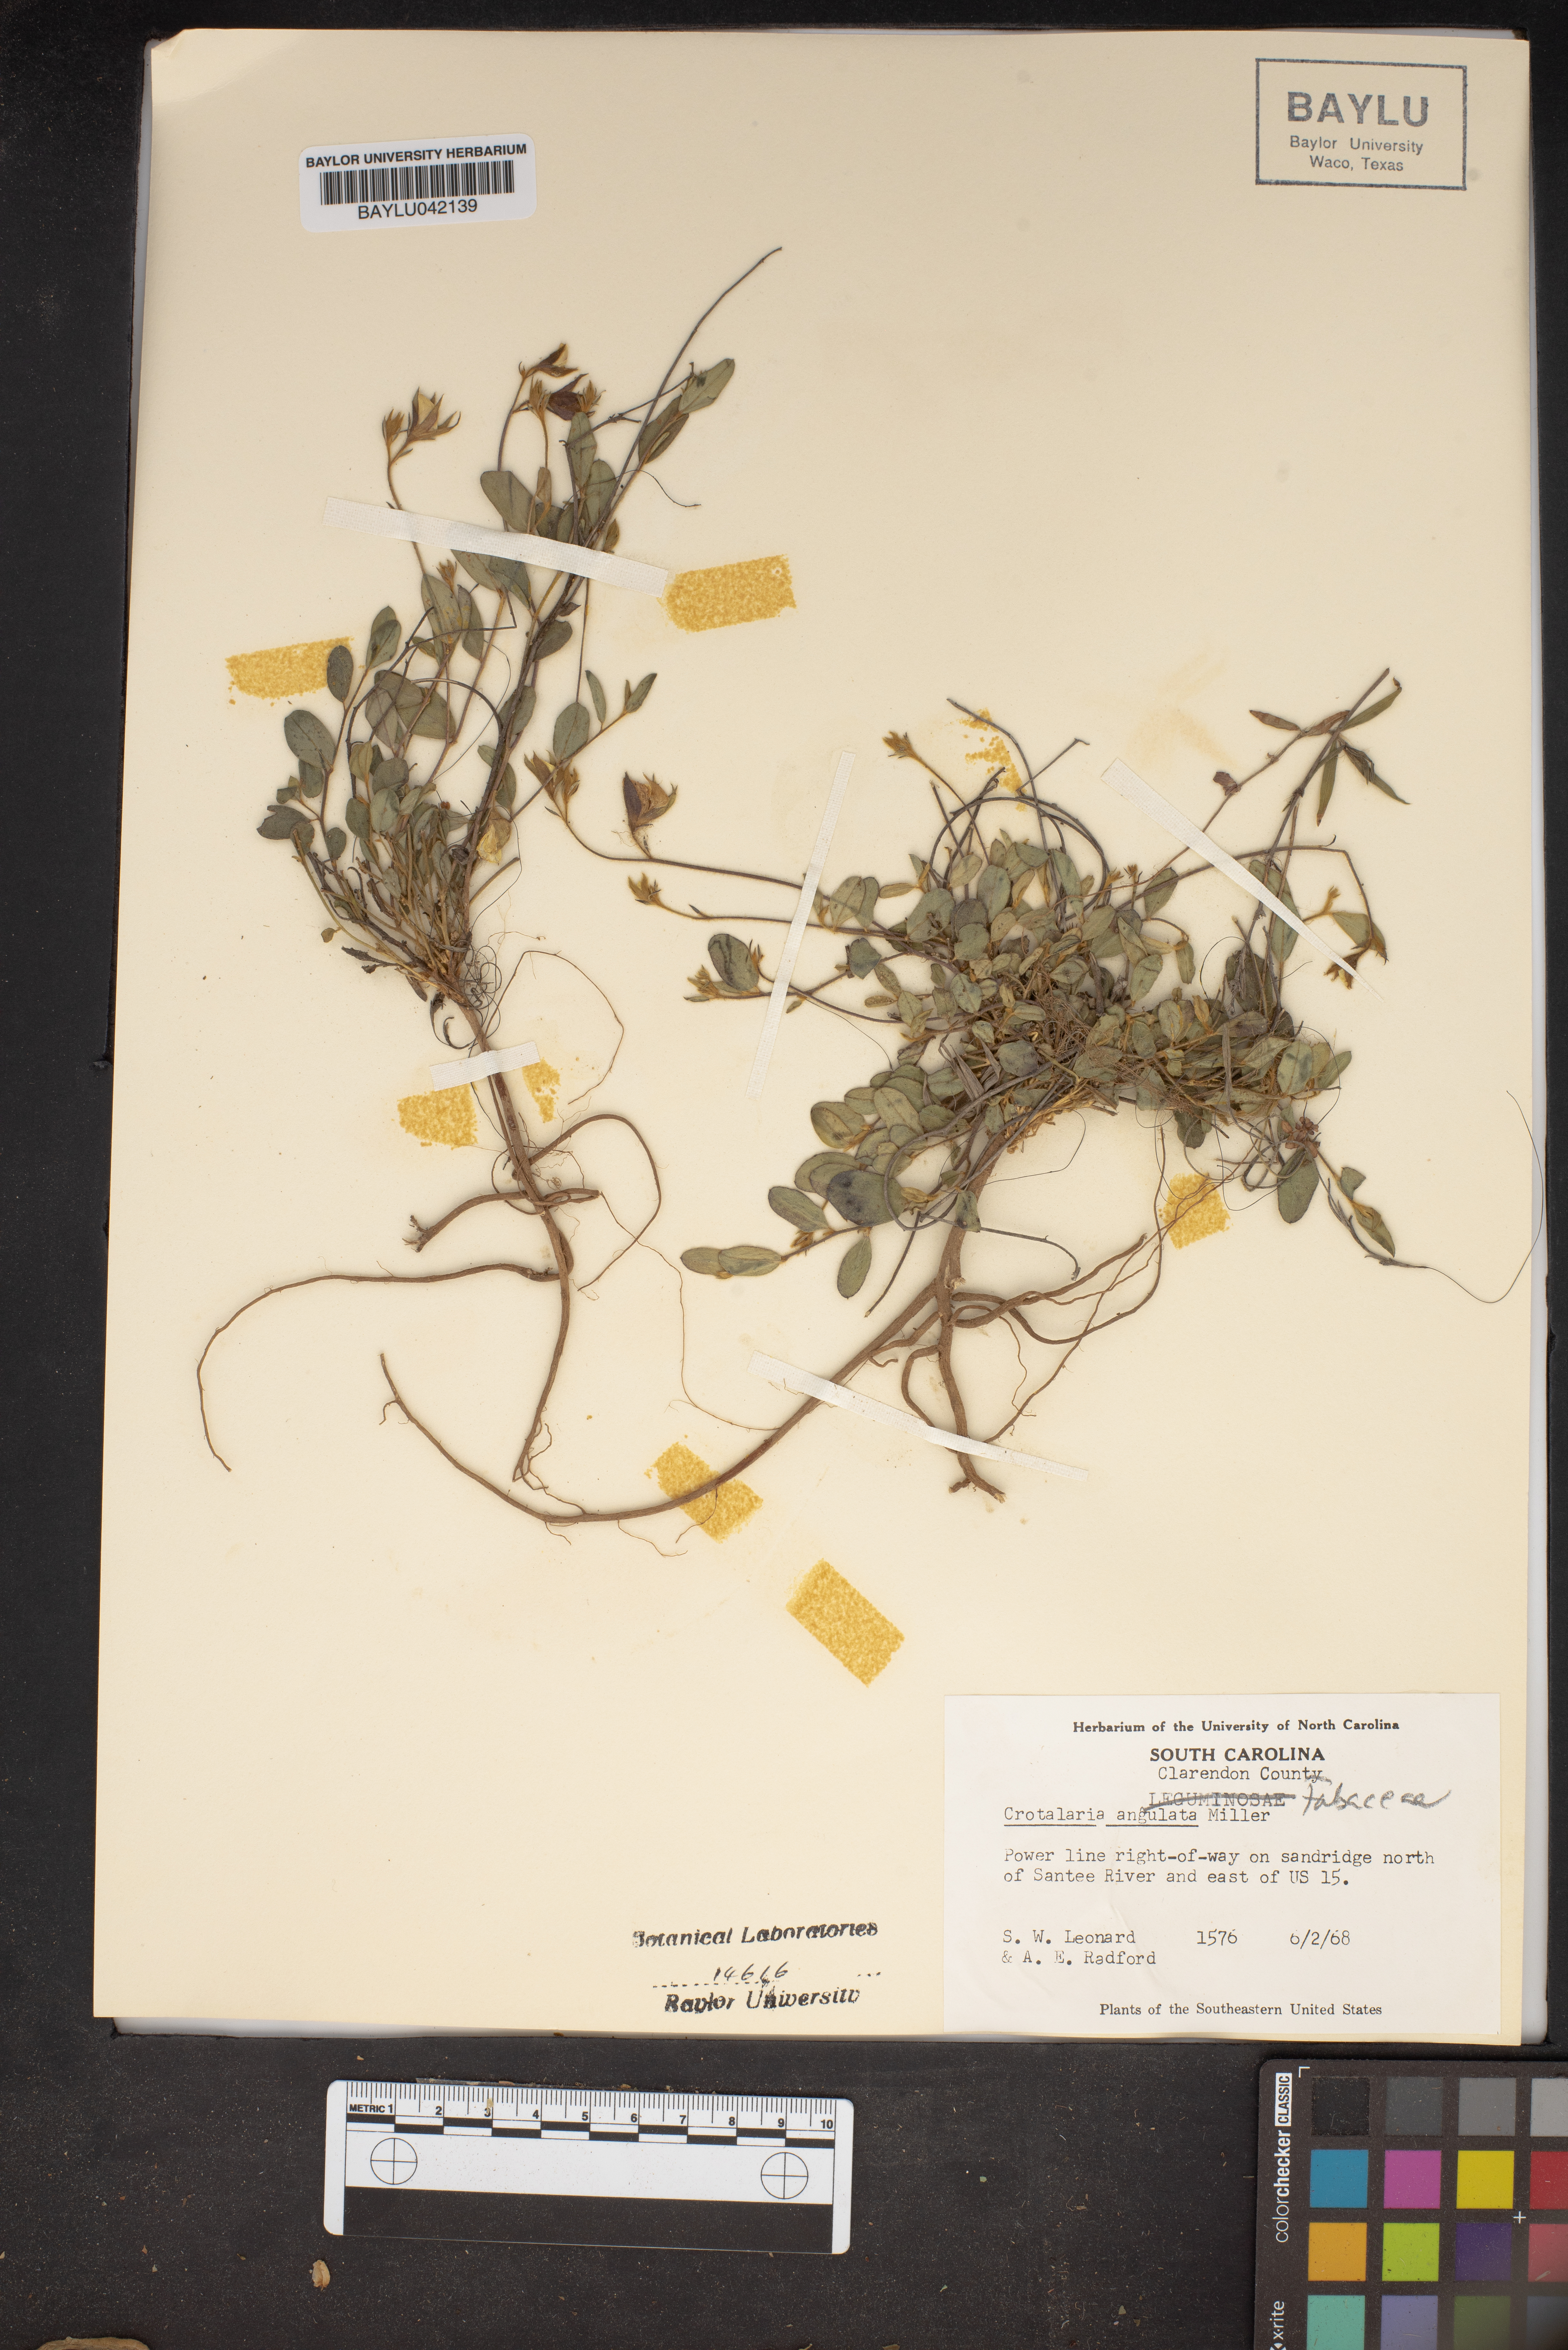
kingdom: Plantae
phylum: Tracheophyta
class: Magnoliopsida
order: Fabales
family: Fabaceae
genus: Crotalaria
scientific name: Crotalaria angulata
